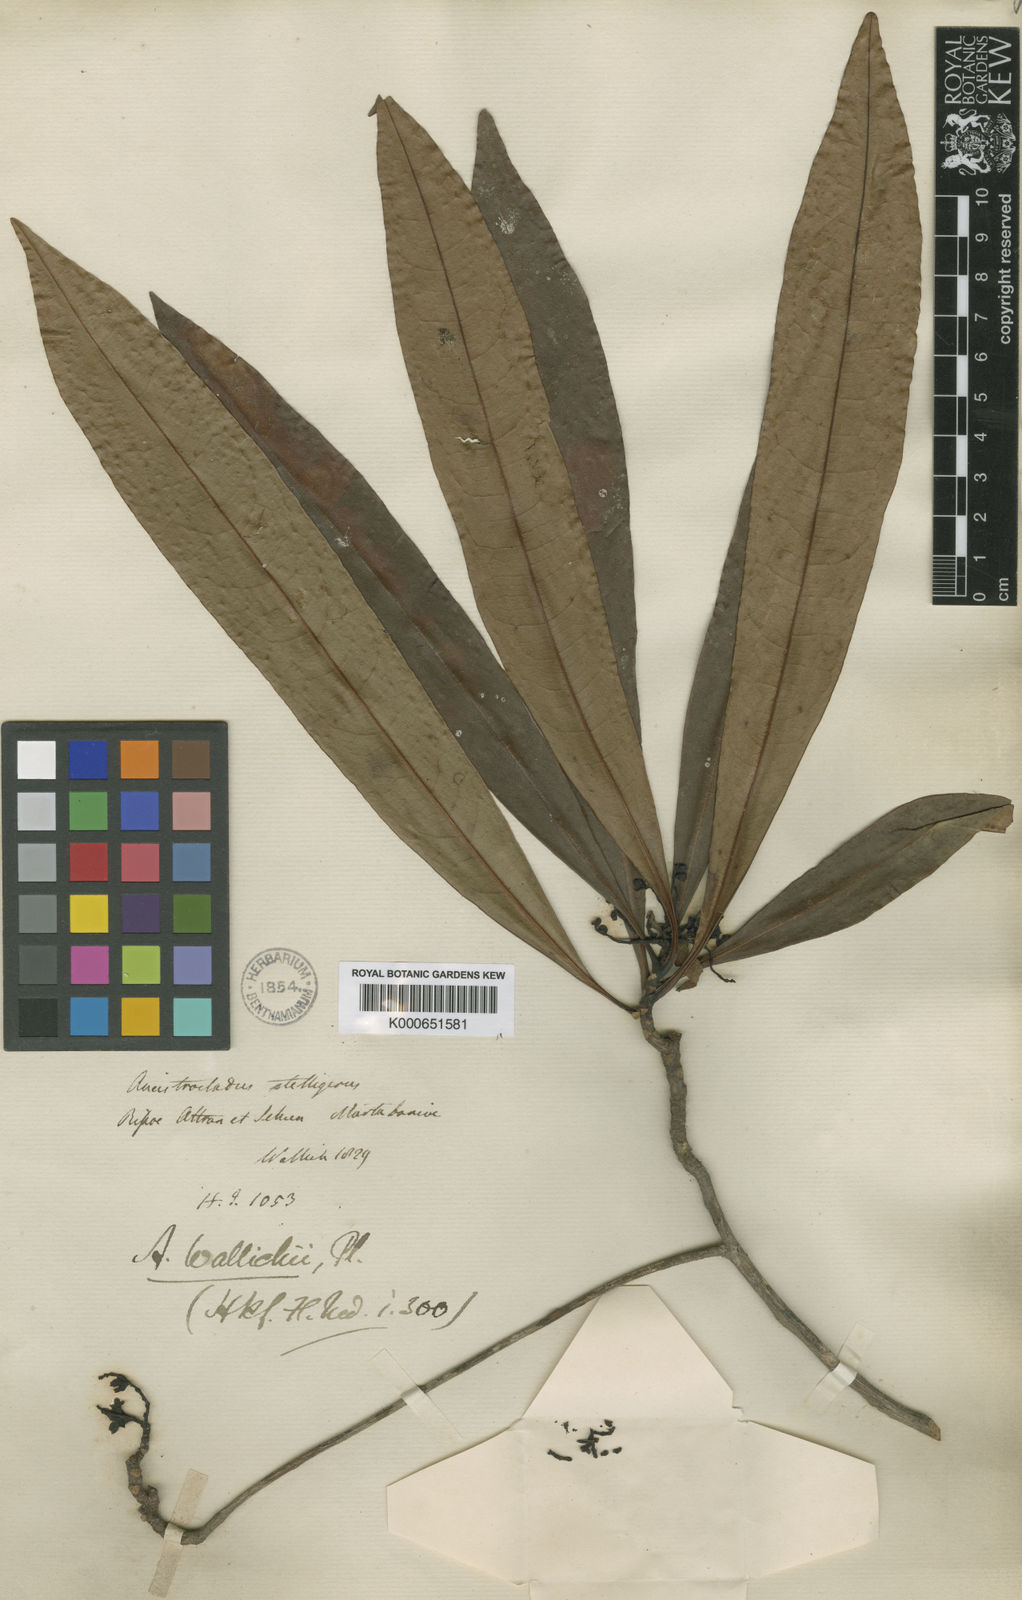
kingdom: Plantae
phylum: Tracheophyta
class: Magnoliopsida
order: Caryophyllales
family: Ancistrocladaceae
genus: Ancistrocladus
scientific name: Ancistrocladus wallichii
